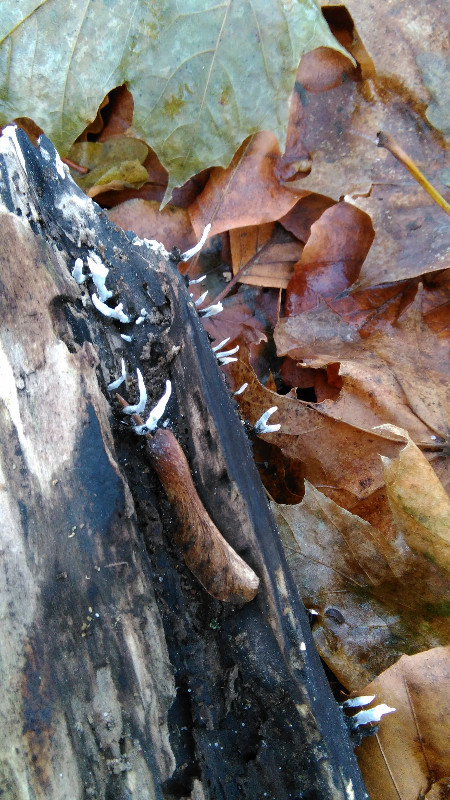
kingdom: Fungi
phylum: Ascomycota
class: Sordariomycetes
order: Xylariales
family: Xylariaceae
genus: Xylaria
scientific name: Xylaria hypoxylon
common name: grenet stødsvamp
